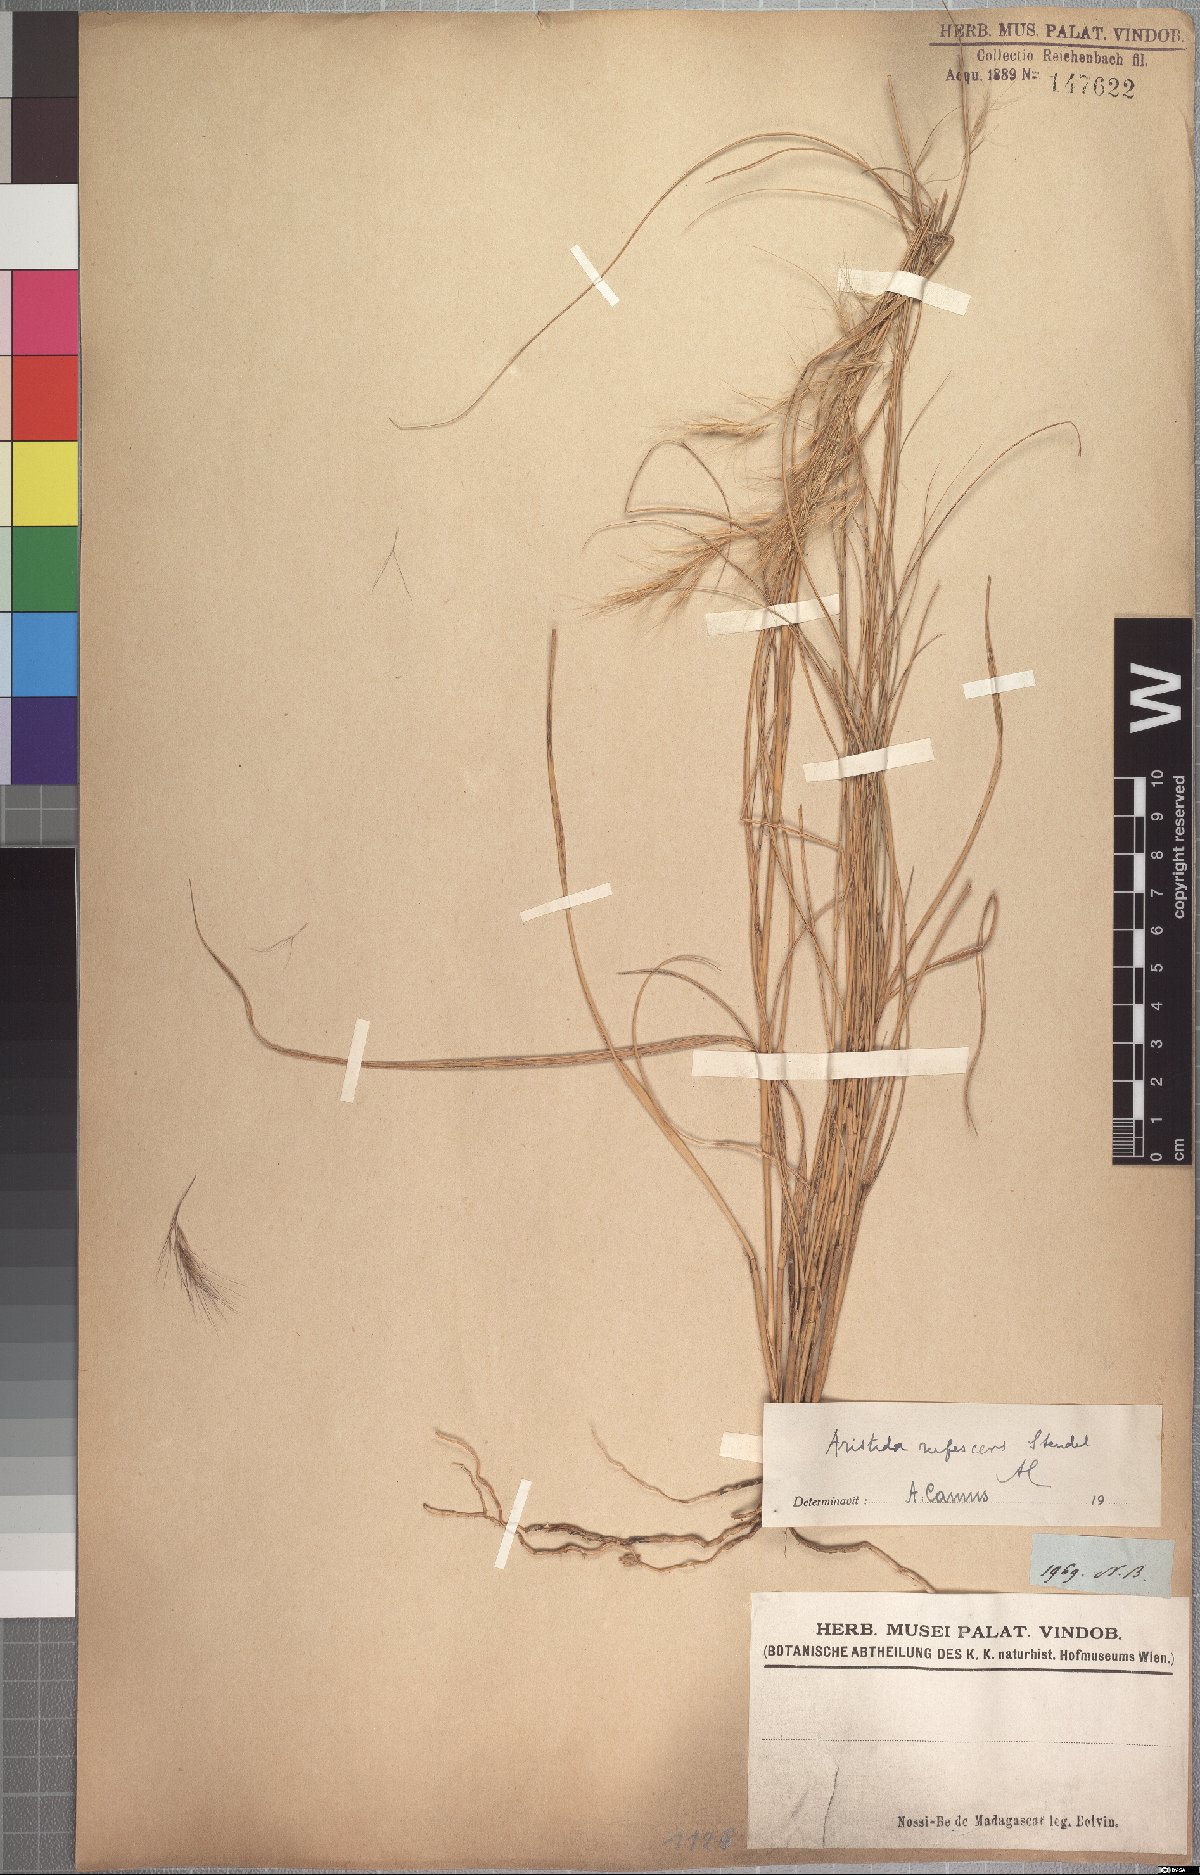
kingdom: Plantae
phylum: Tracheophyta
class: Liliopsida
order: Poales
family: Poaceae
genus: Aristida
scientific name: Aristida rufescens
